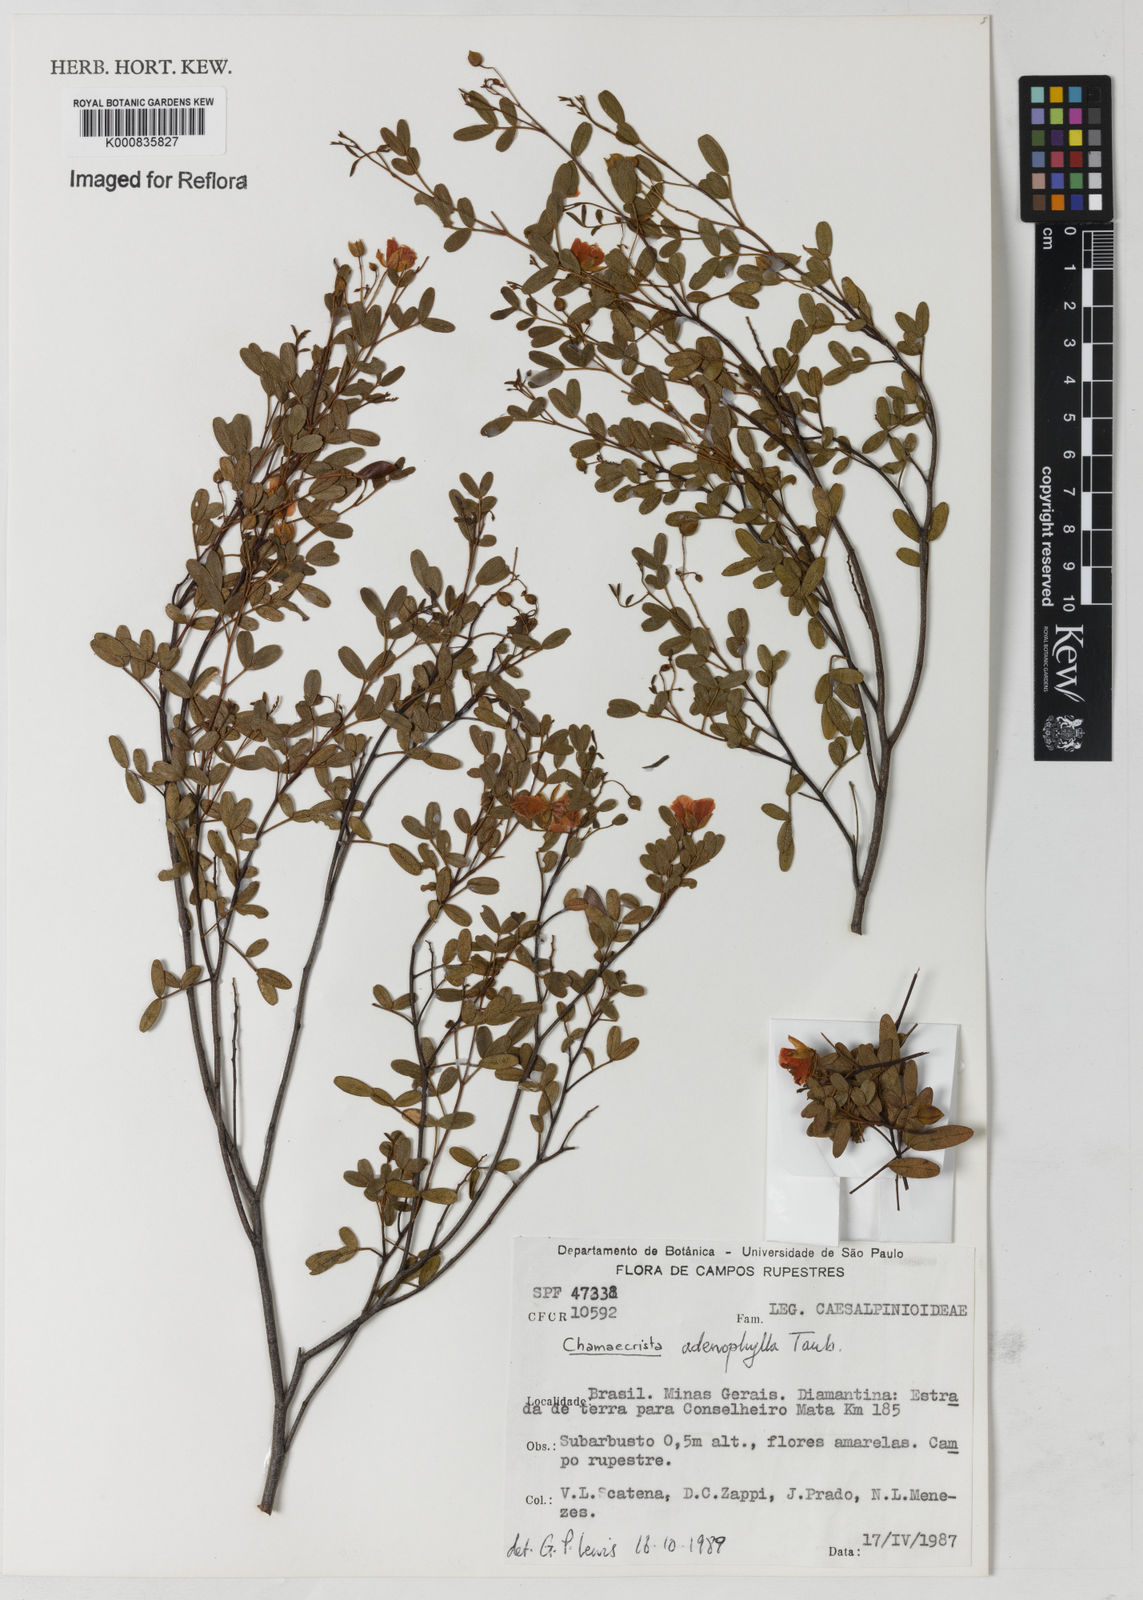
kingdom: Plantae
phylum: Tracheophyta
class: Magnoliopsida
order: Fabales
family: Fabaceae
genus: Chamaecrista
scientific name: Chamaecrista adenophylla
